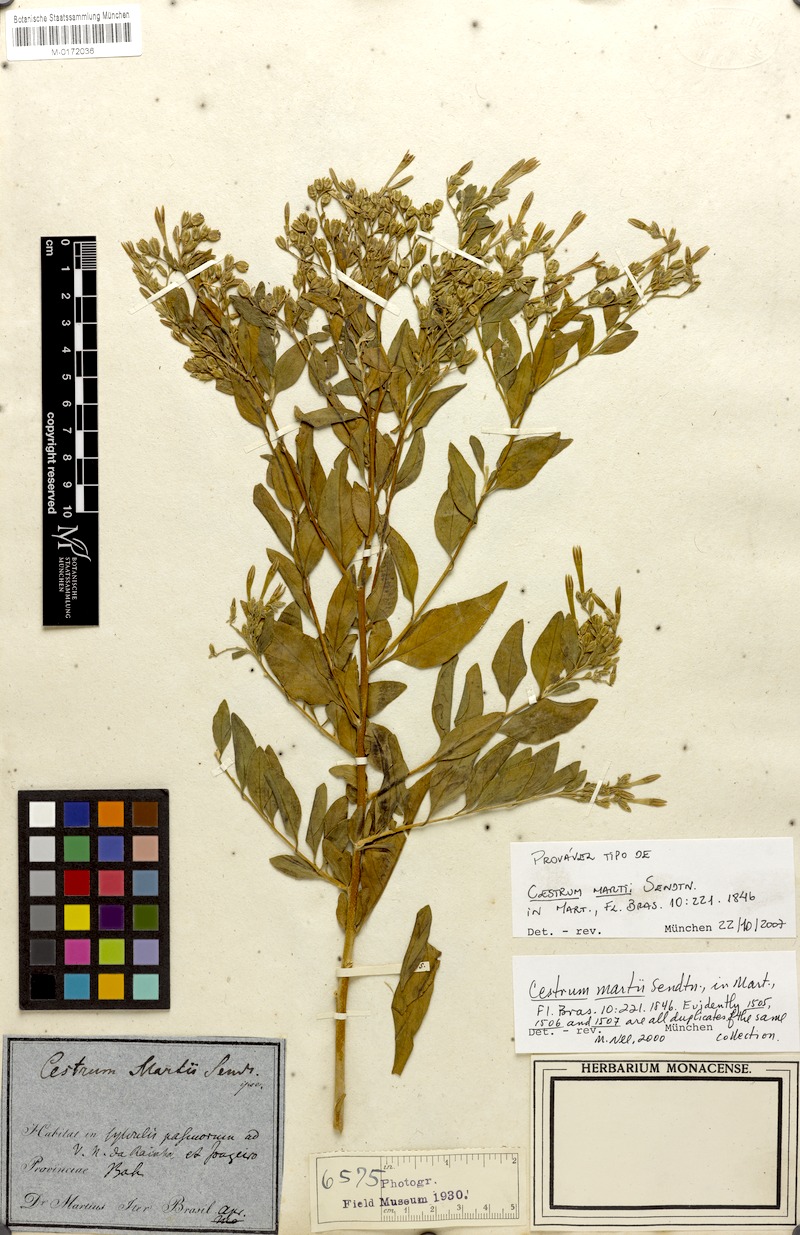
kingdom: Plantae
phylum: Tracheophyta
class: Magnoliopsida
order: Solanales
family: Solanaceae
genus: Cestrum
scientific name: Cestrum martii
